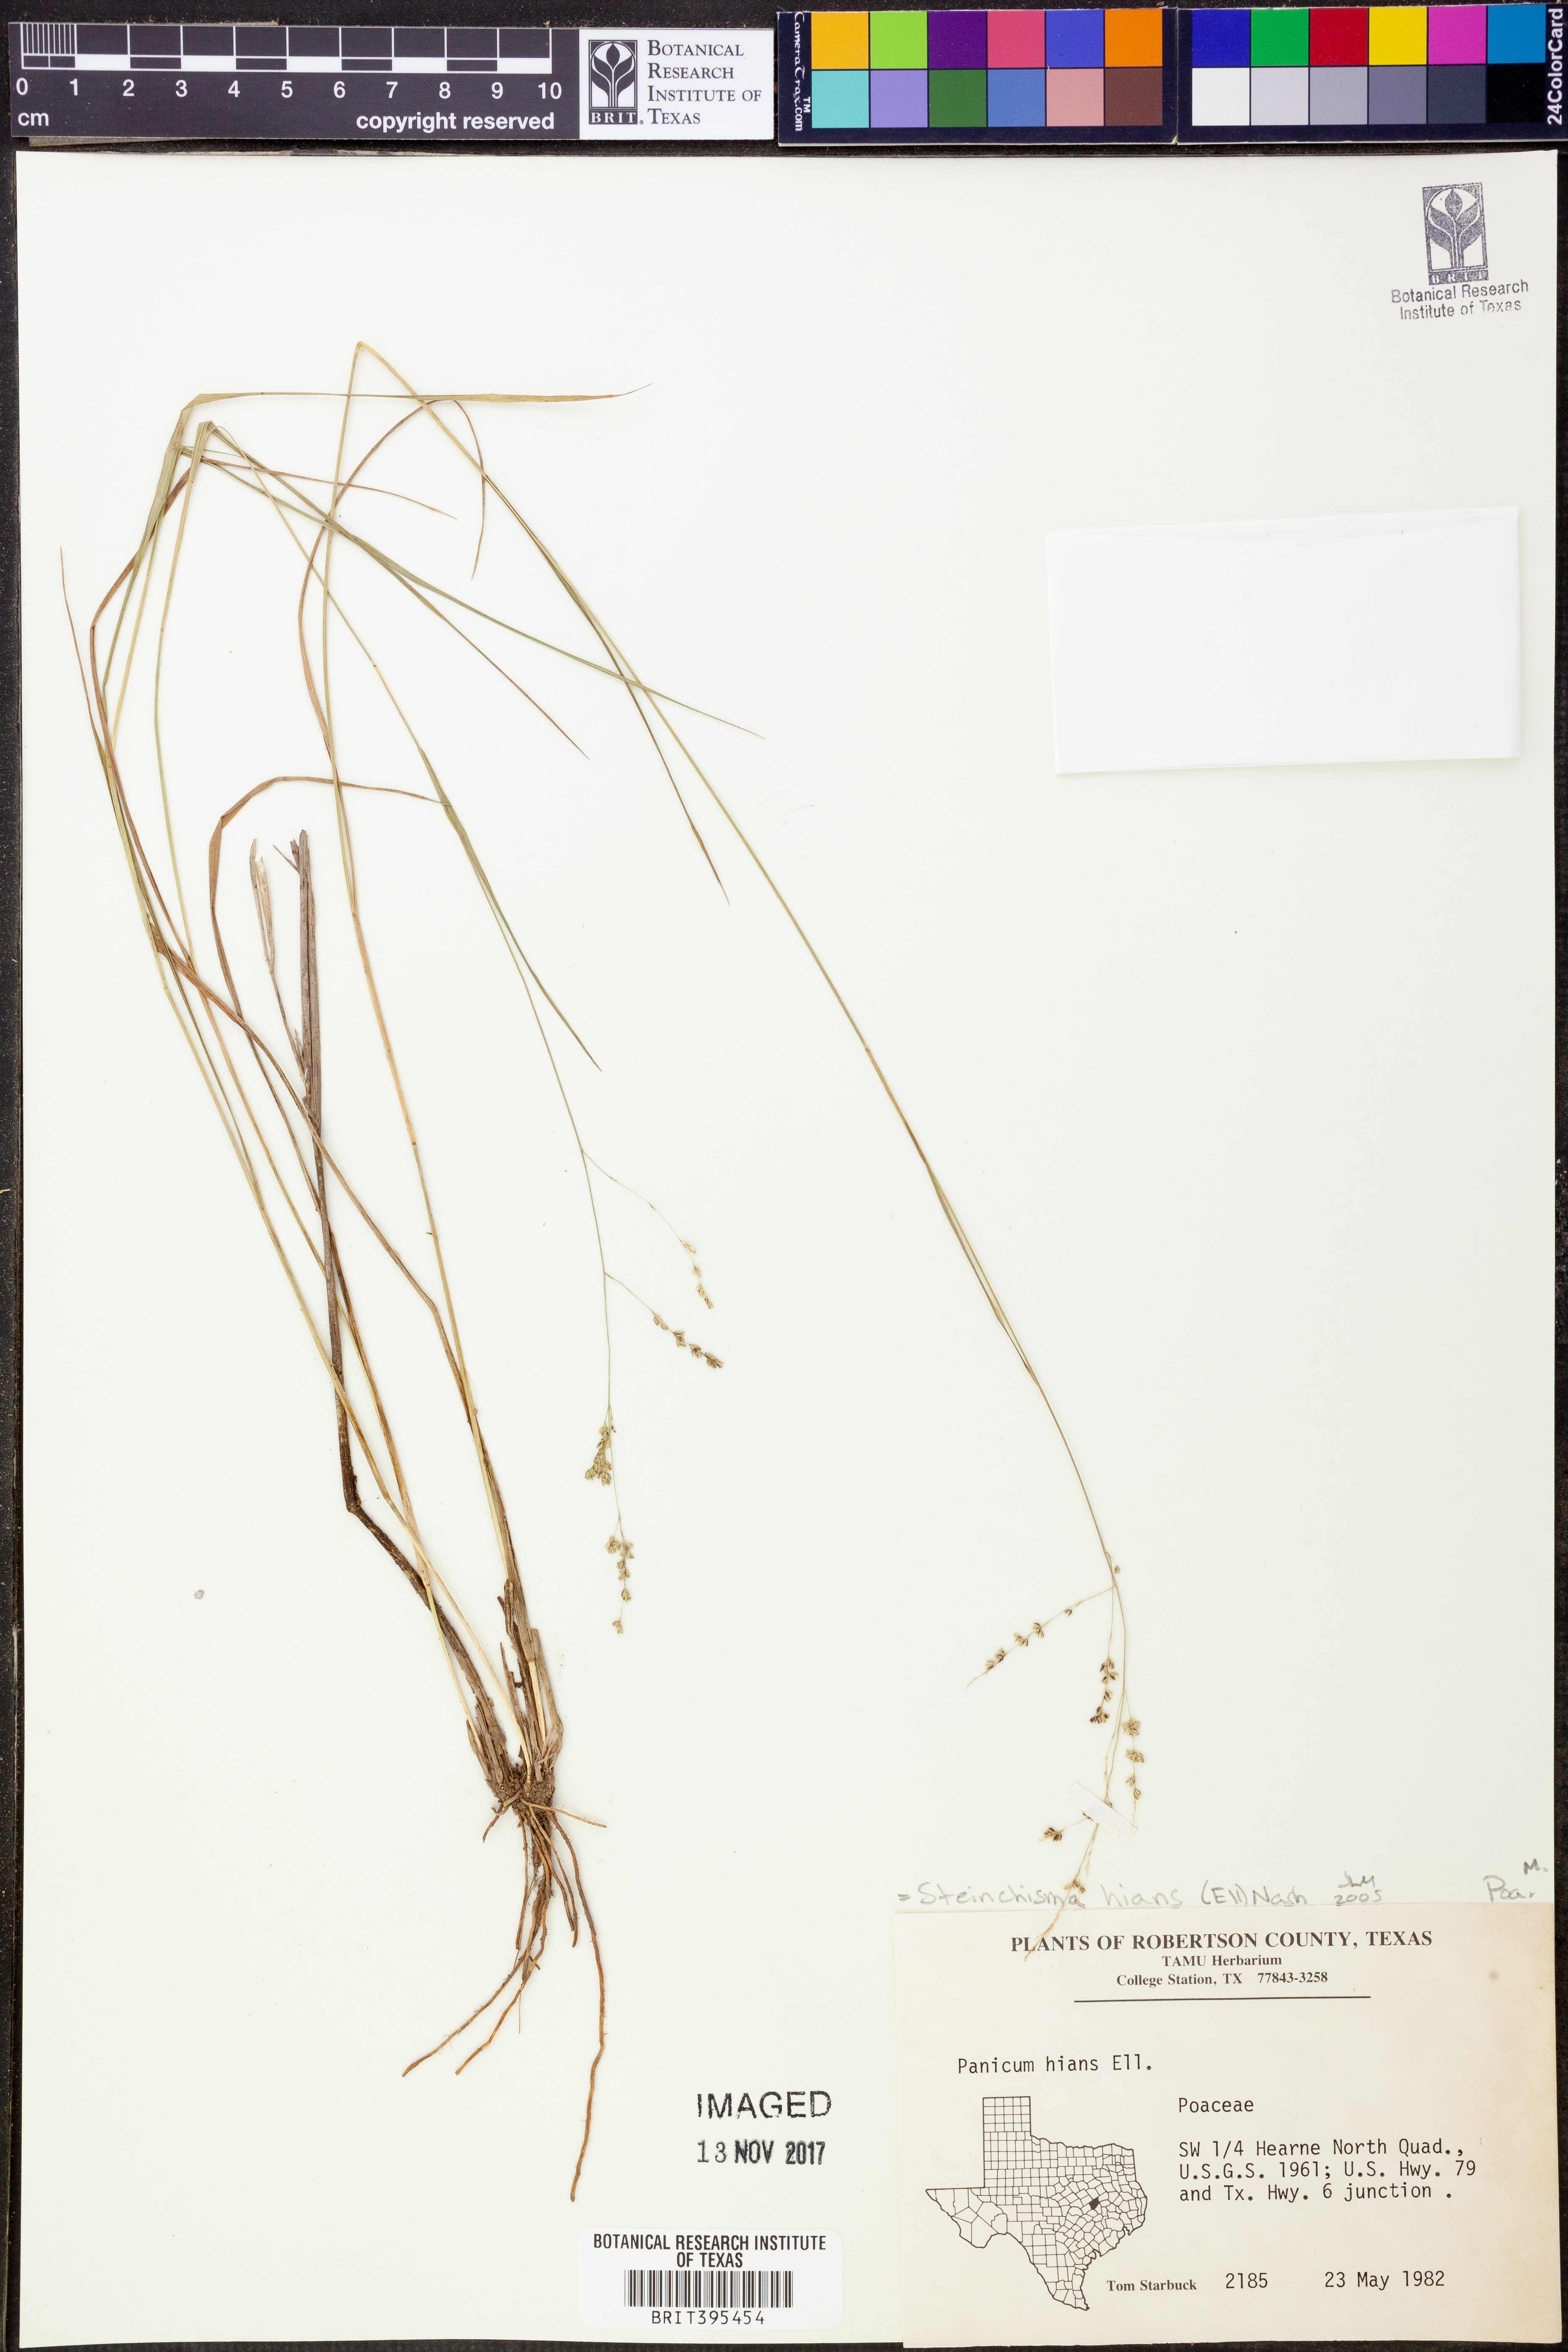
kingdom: Plantae
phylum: Tracheophyta
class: Liliopsida
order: Poales
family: Poaceae
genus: Steinchisma
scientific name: Steinchisma hians
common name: Gaping panic grass
